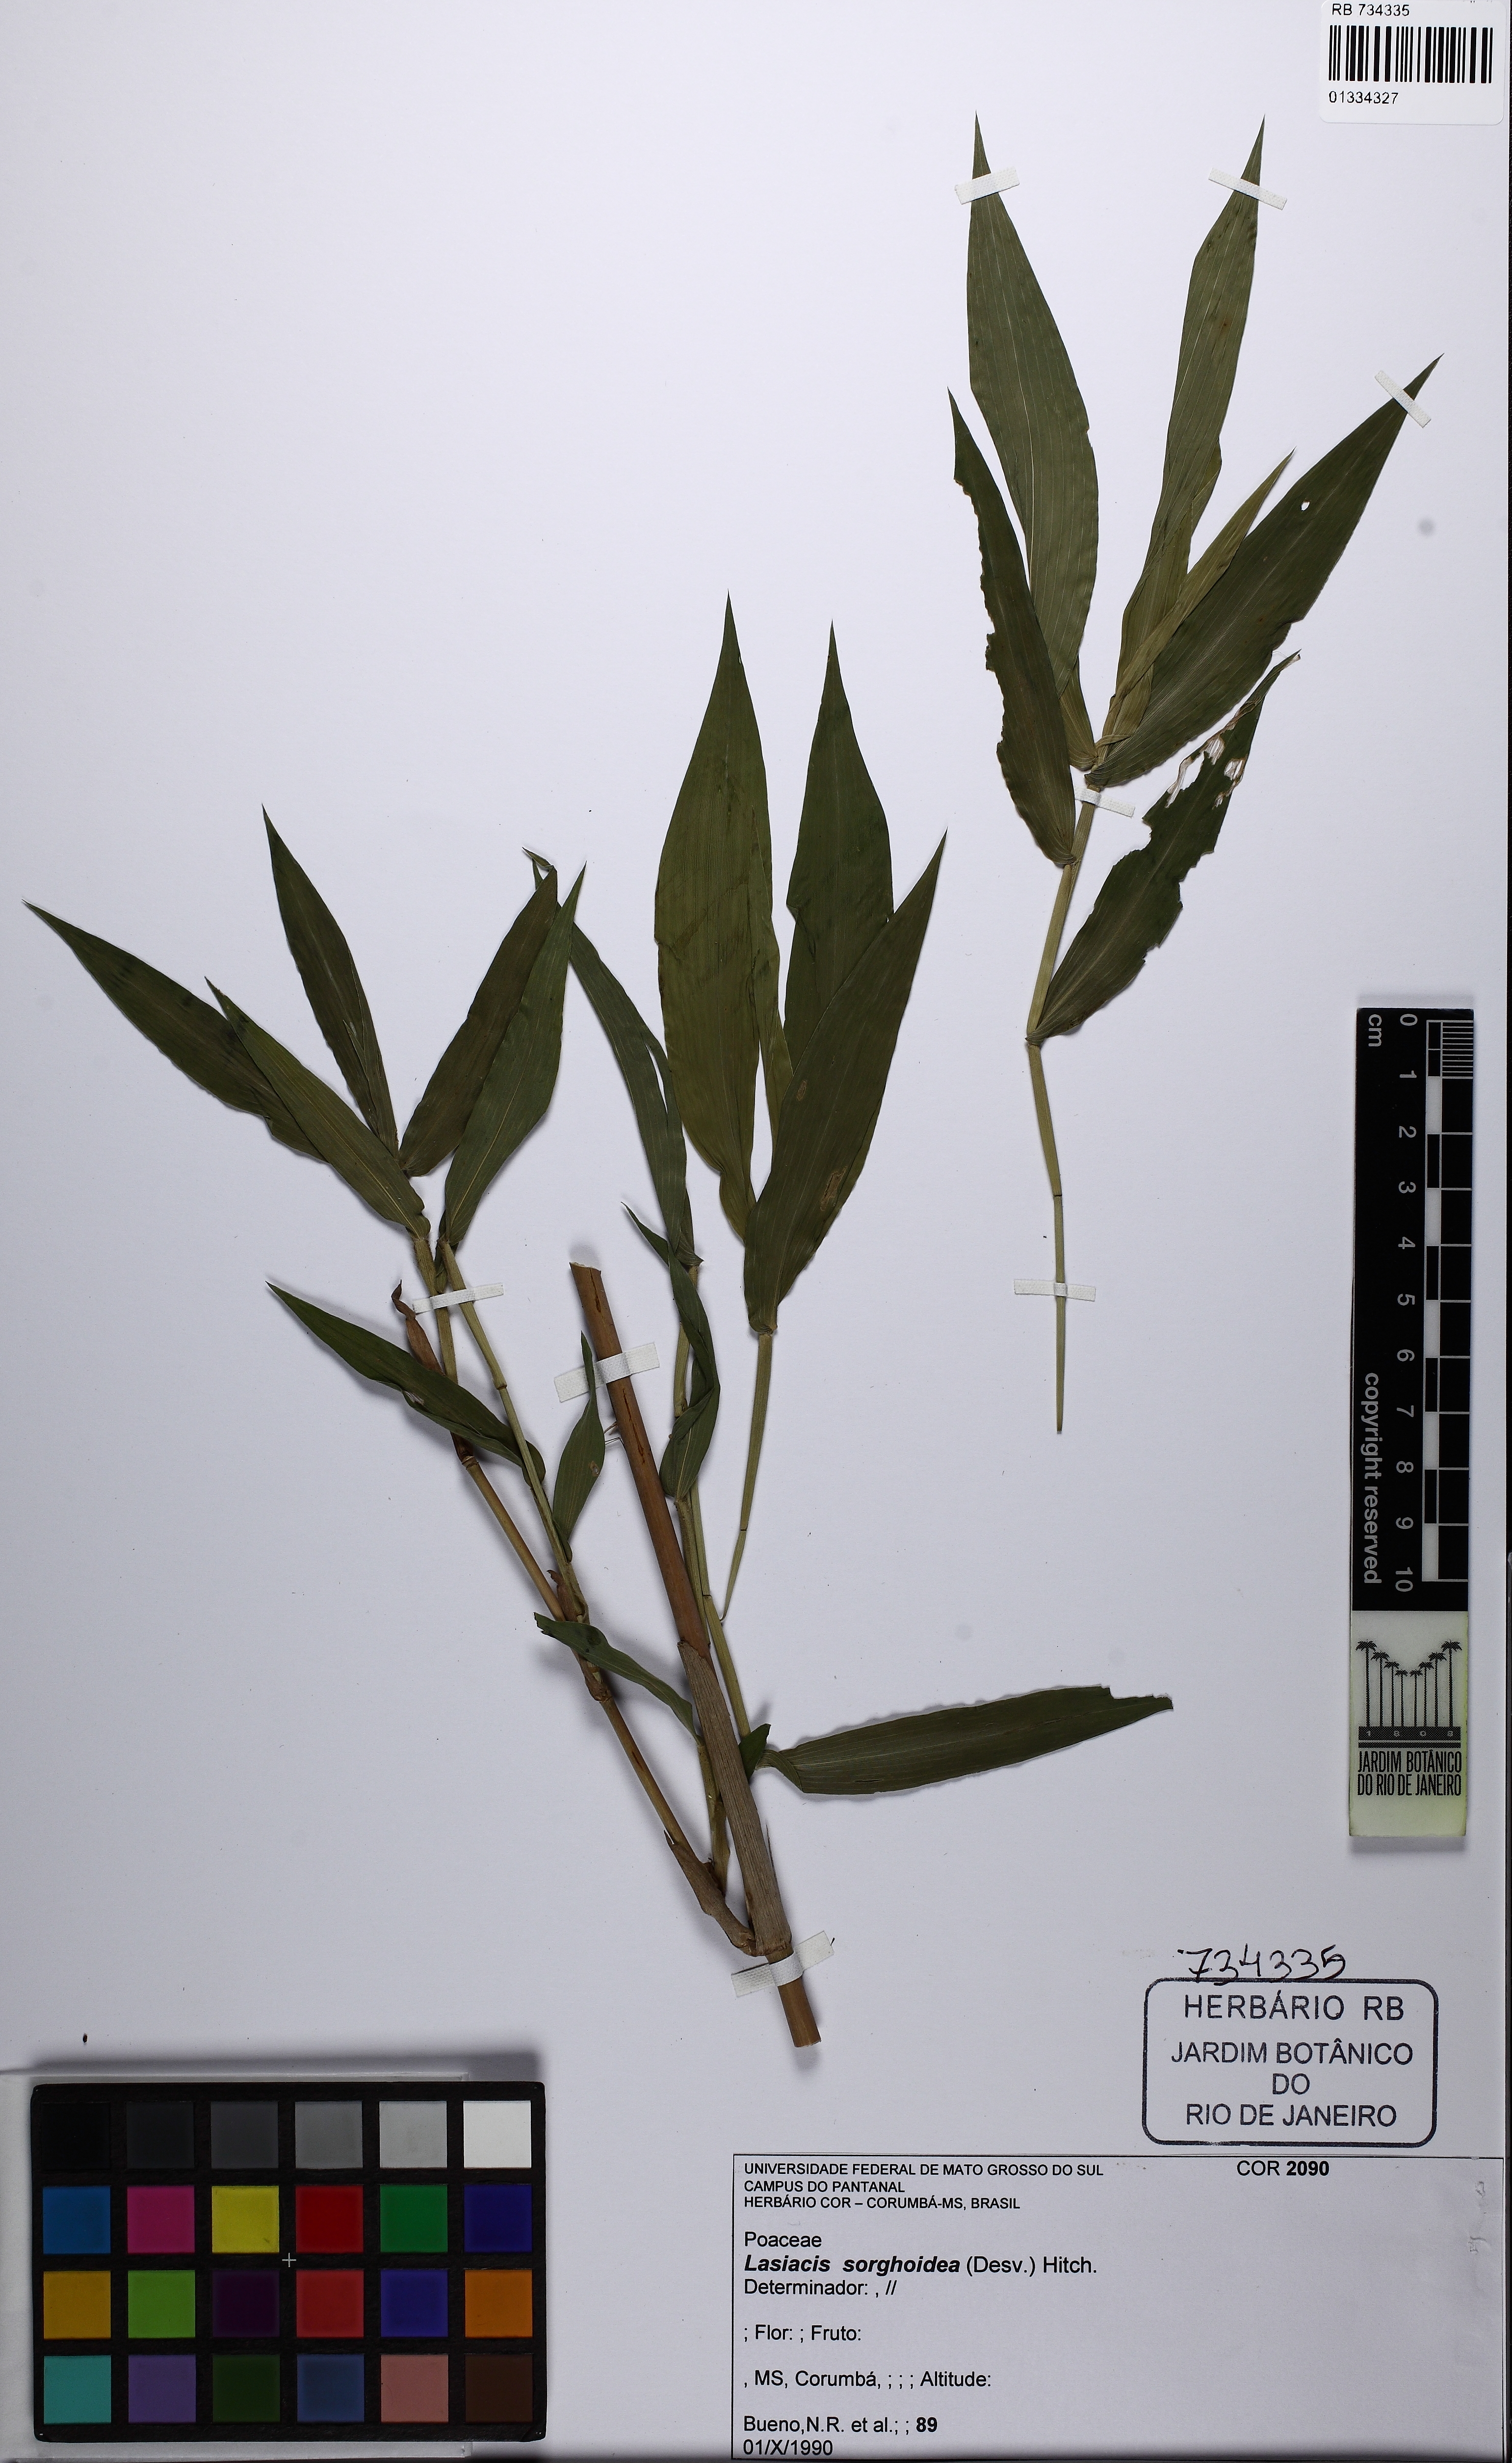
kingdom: Plantae
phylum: Tracheophyta
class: Liliopsida
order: Poales
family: Poaceae
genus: Lasiacis
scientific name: Lasiacis maculata
